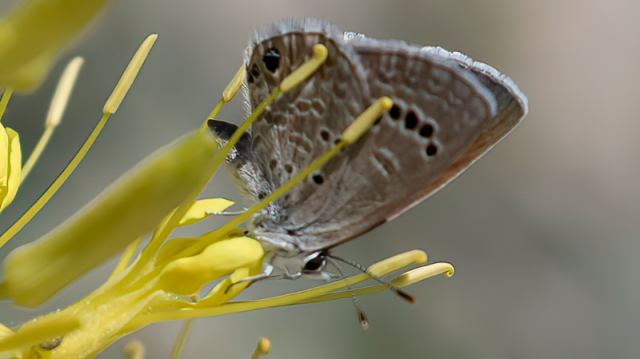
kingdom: Animalia
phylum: Arthropoda
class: Insecta
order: Lepidoptera
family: Lycaenidae
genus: Echinargus
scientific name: Echinargus isola
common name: Reakirt's Blue
